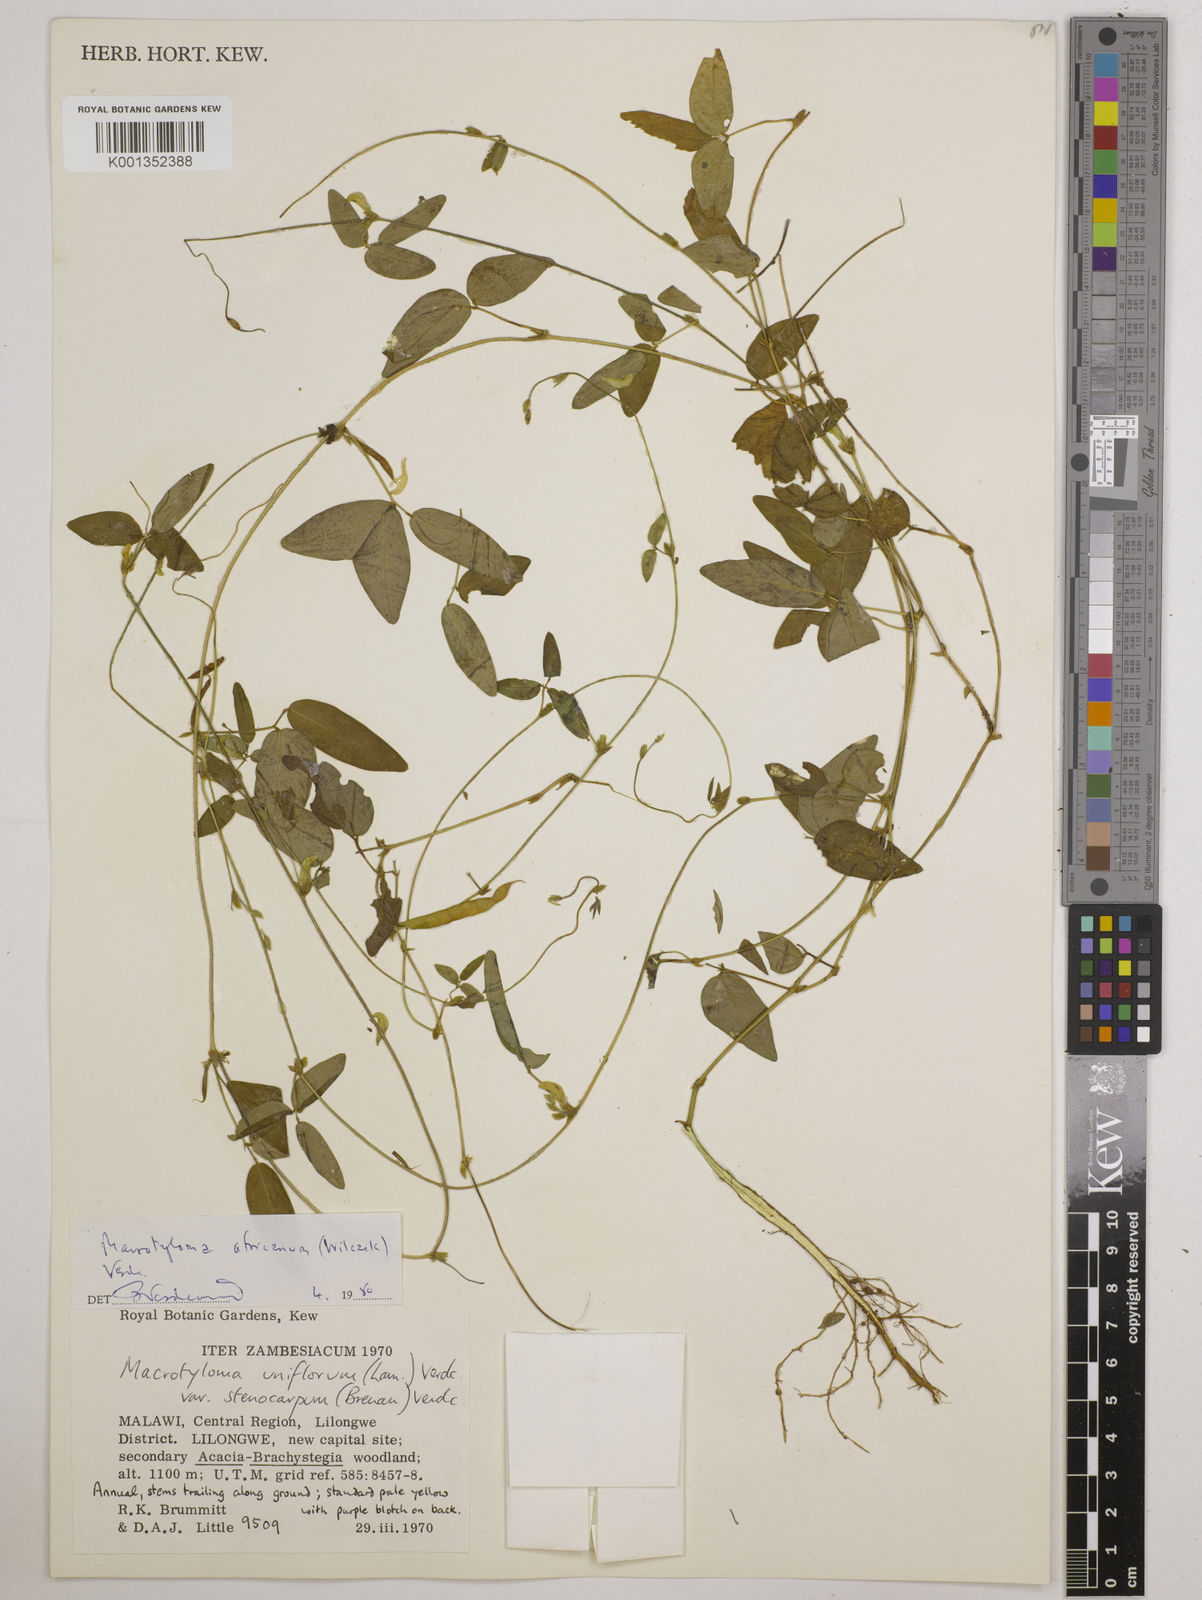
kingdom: Plantae
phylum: Tracheophyta
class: Magnoliopsida
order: Fabales
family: Fabaceae
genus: Macrotyloma
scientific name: Macrotyloma africanum
